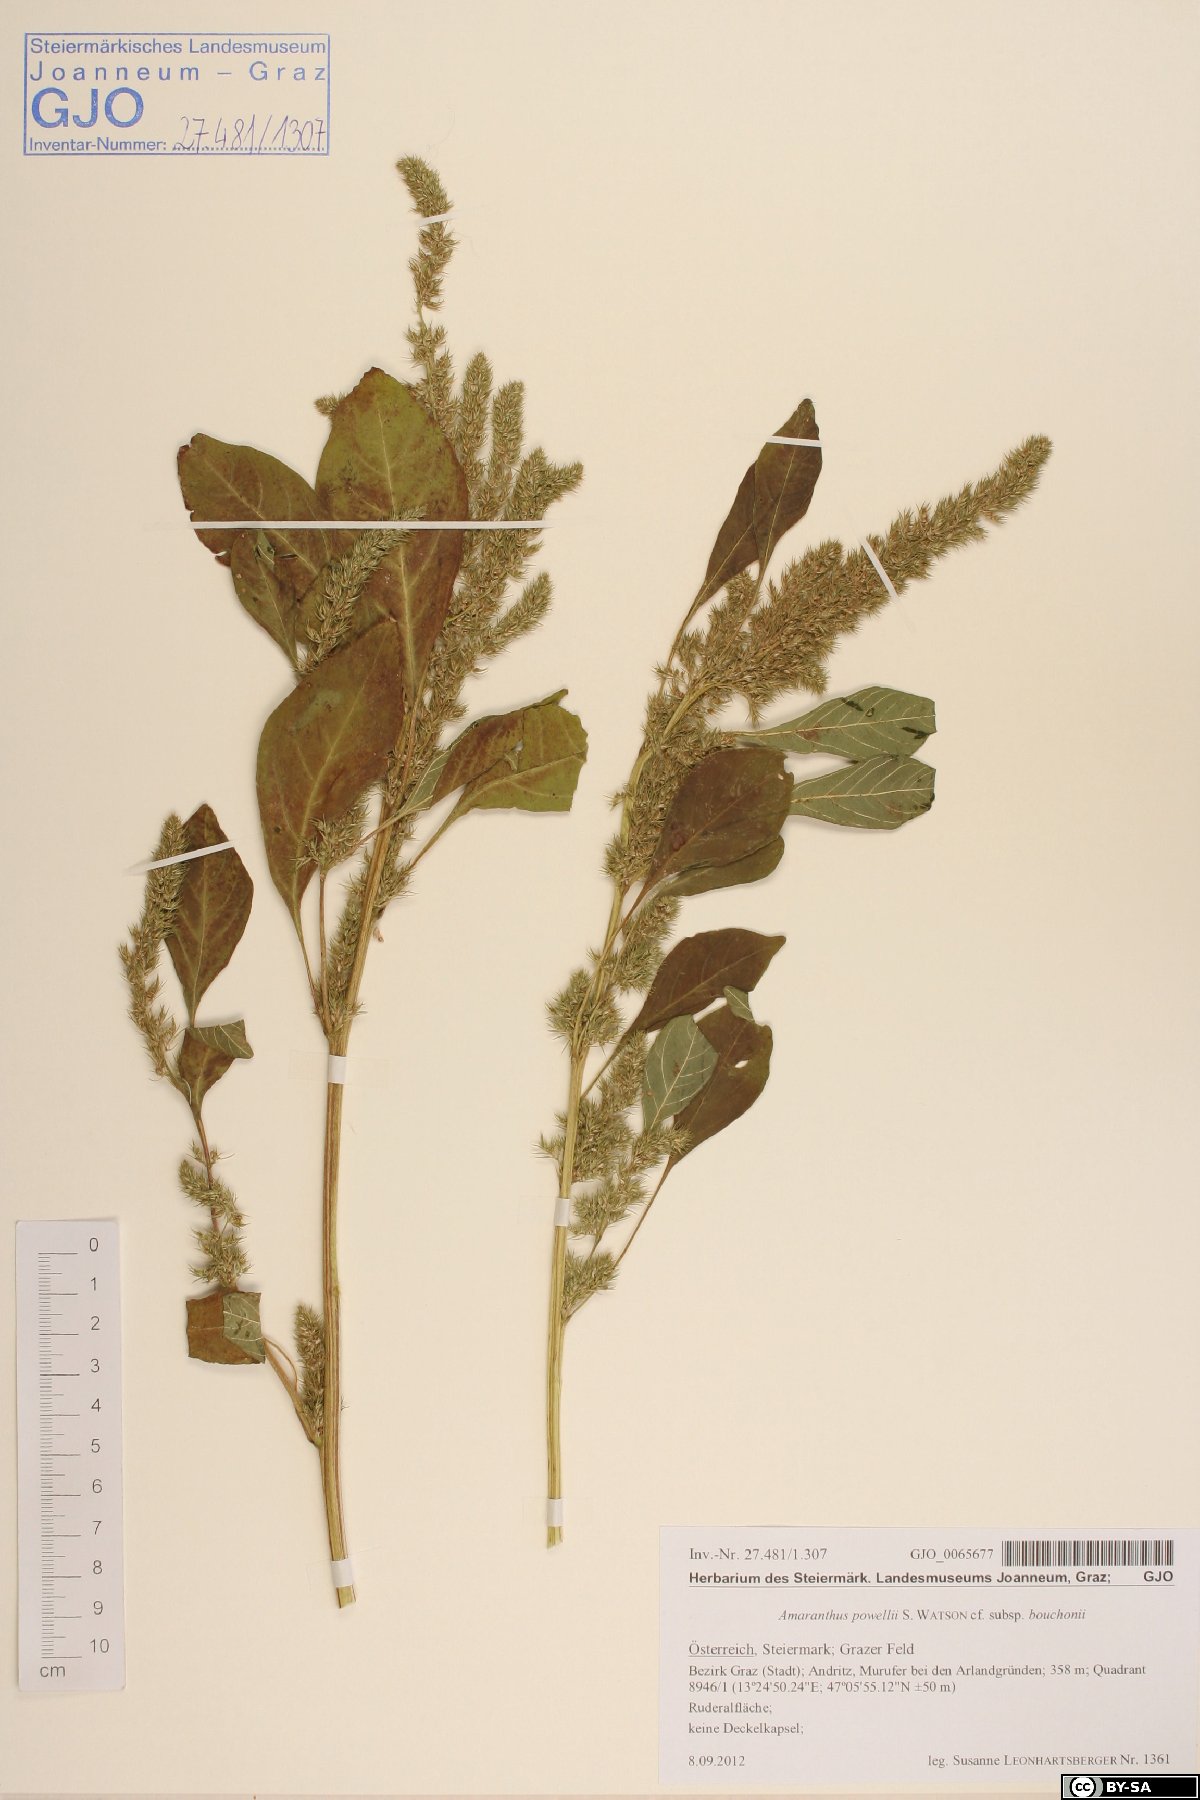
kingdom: Plantae
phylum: Tracheophyta
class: Magnoliopsida
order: Caryophyllales
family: Amaranthaceae
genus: Amaranthus
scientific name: Amaranthus bouchonii
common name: Indehiscent amaranth
